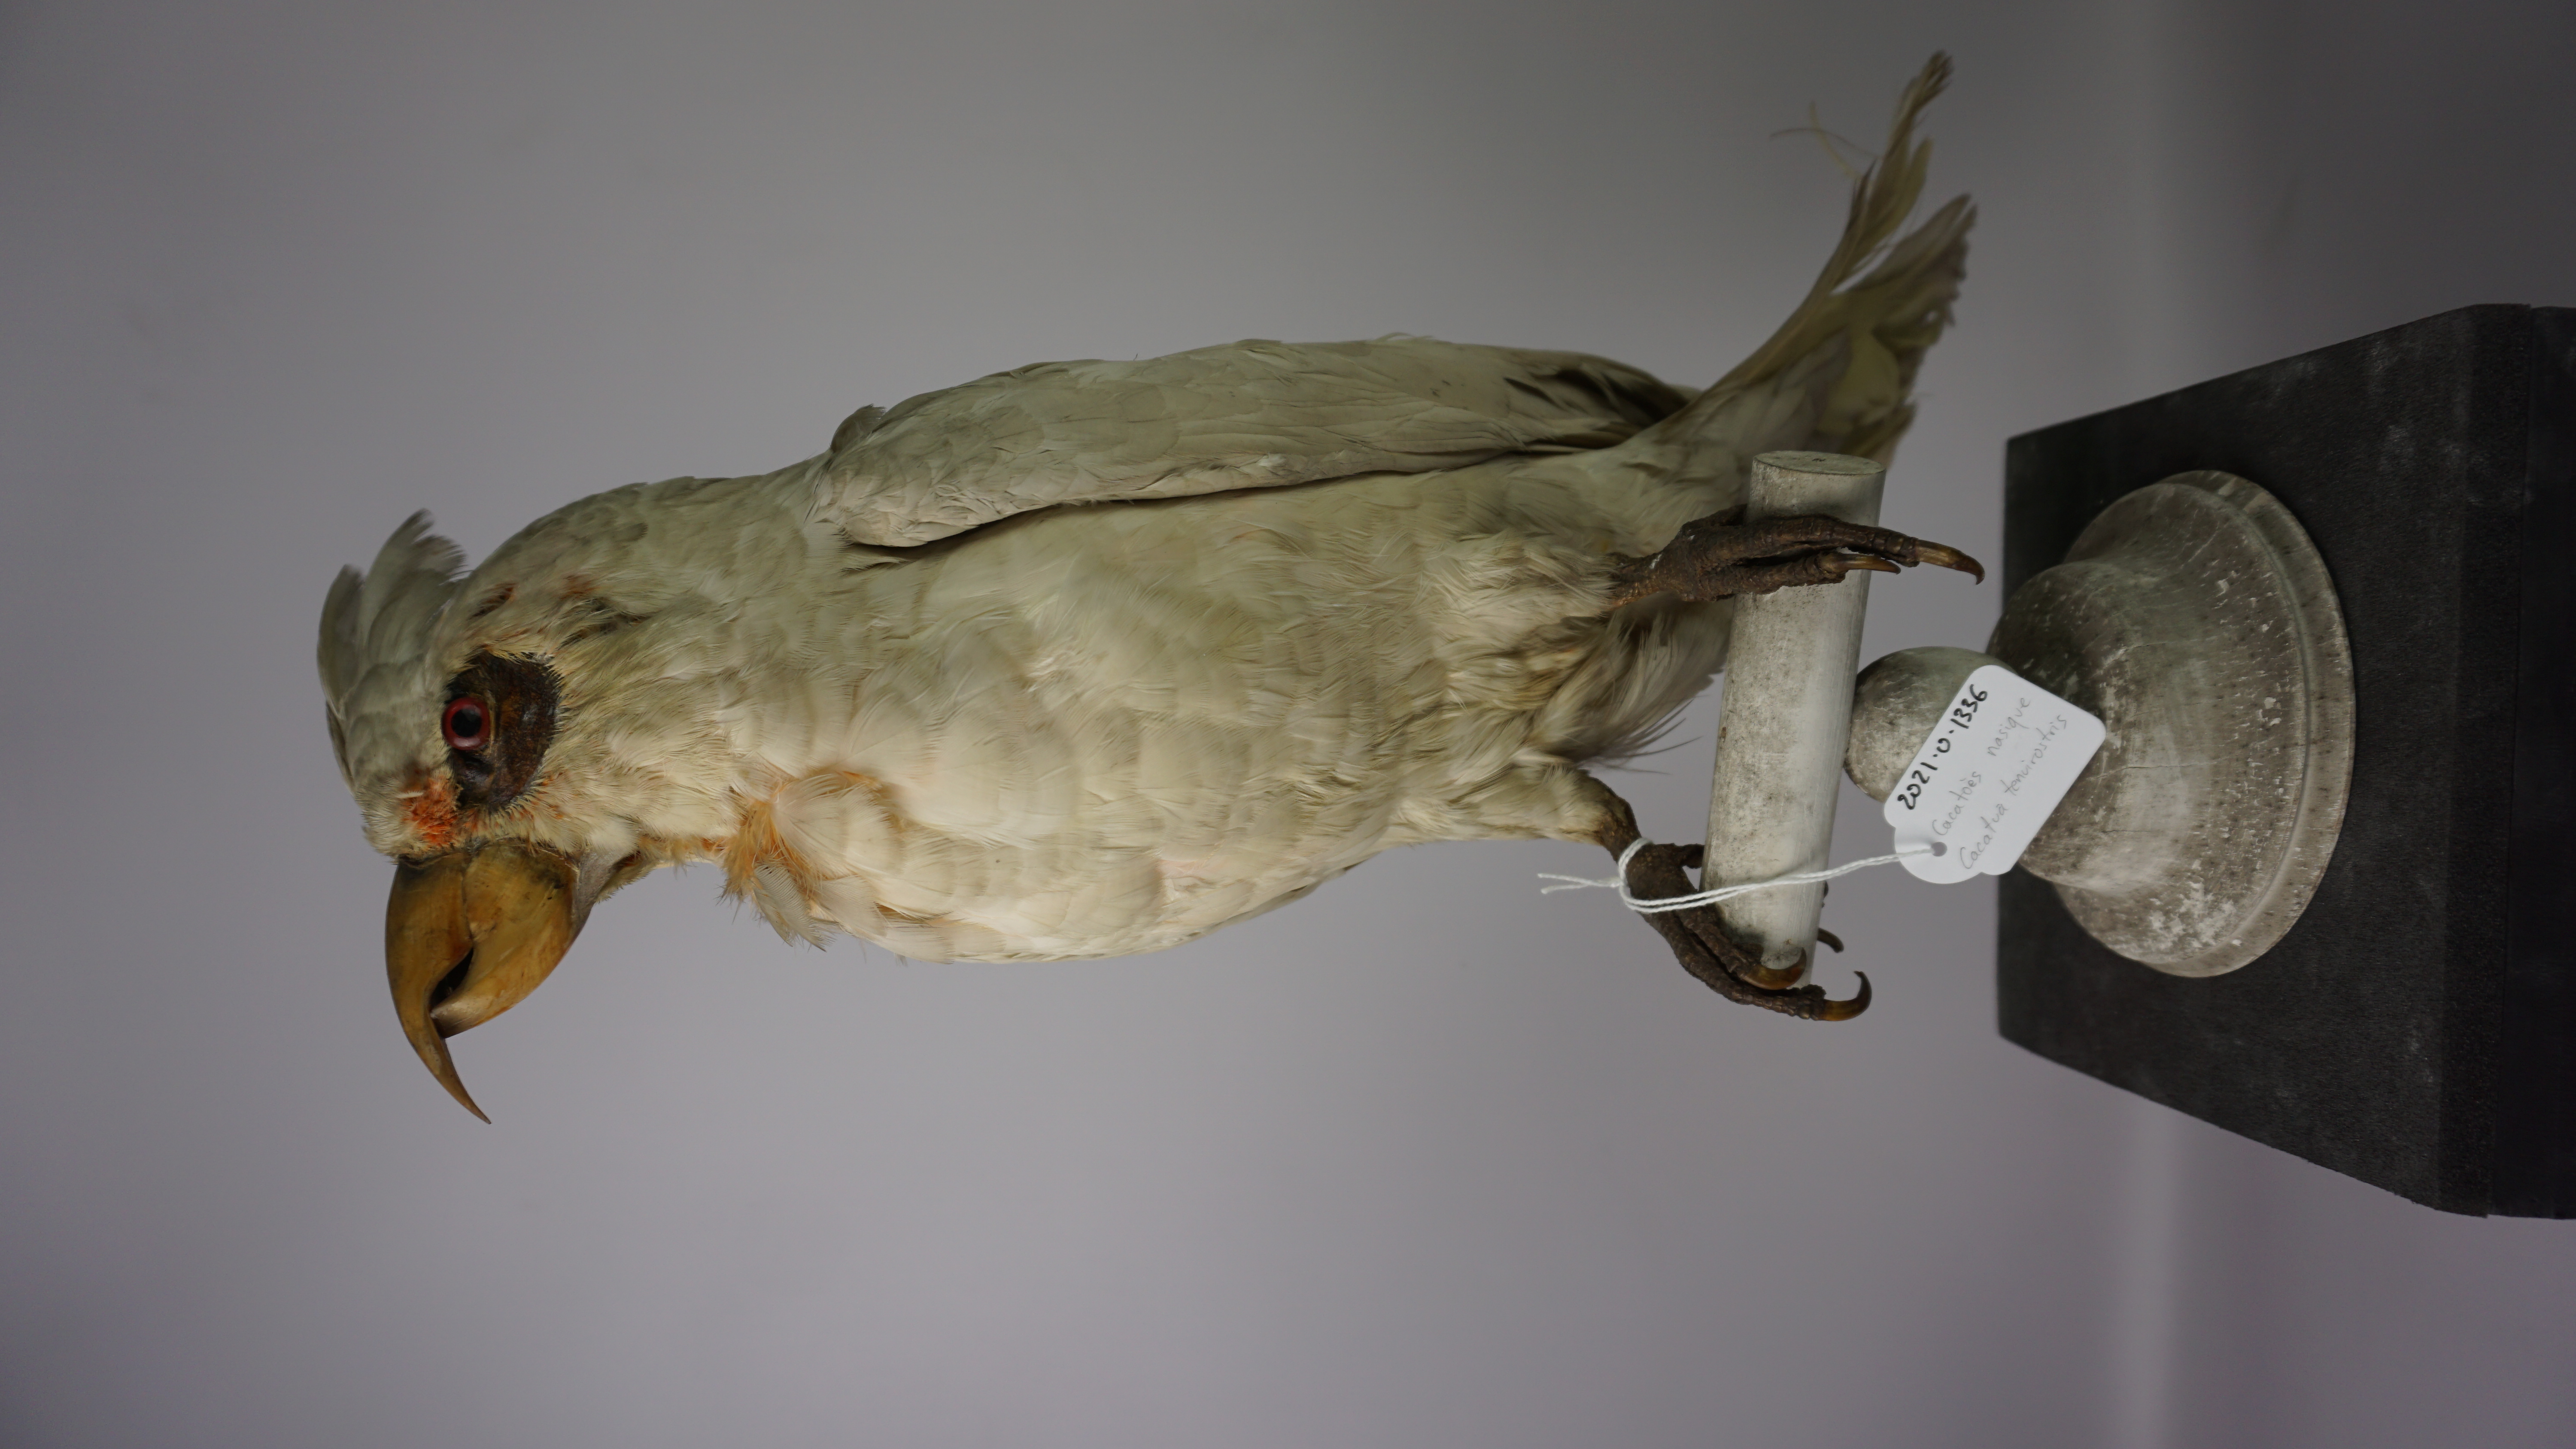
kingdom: Animalia
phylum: Chordata
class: Aves
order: Psittaciformes
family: Psittacidae
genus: Cacatua
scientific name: Cacatua tenuirostris
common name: Long-billed corella
